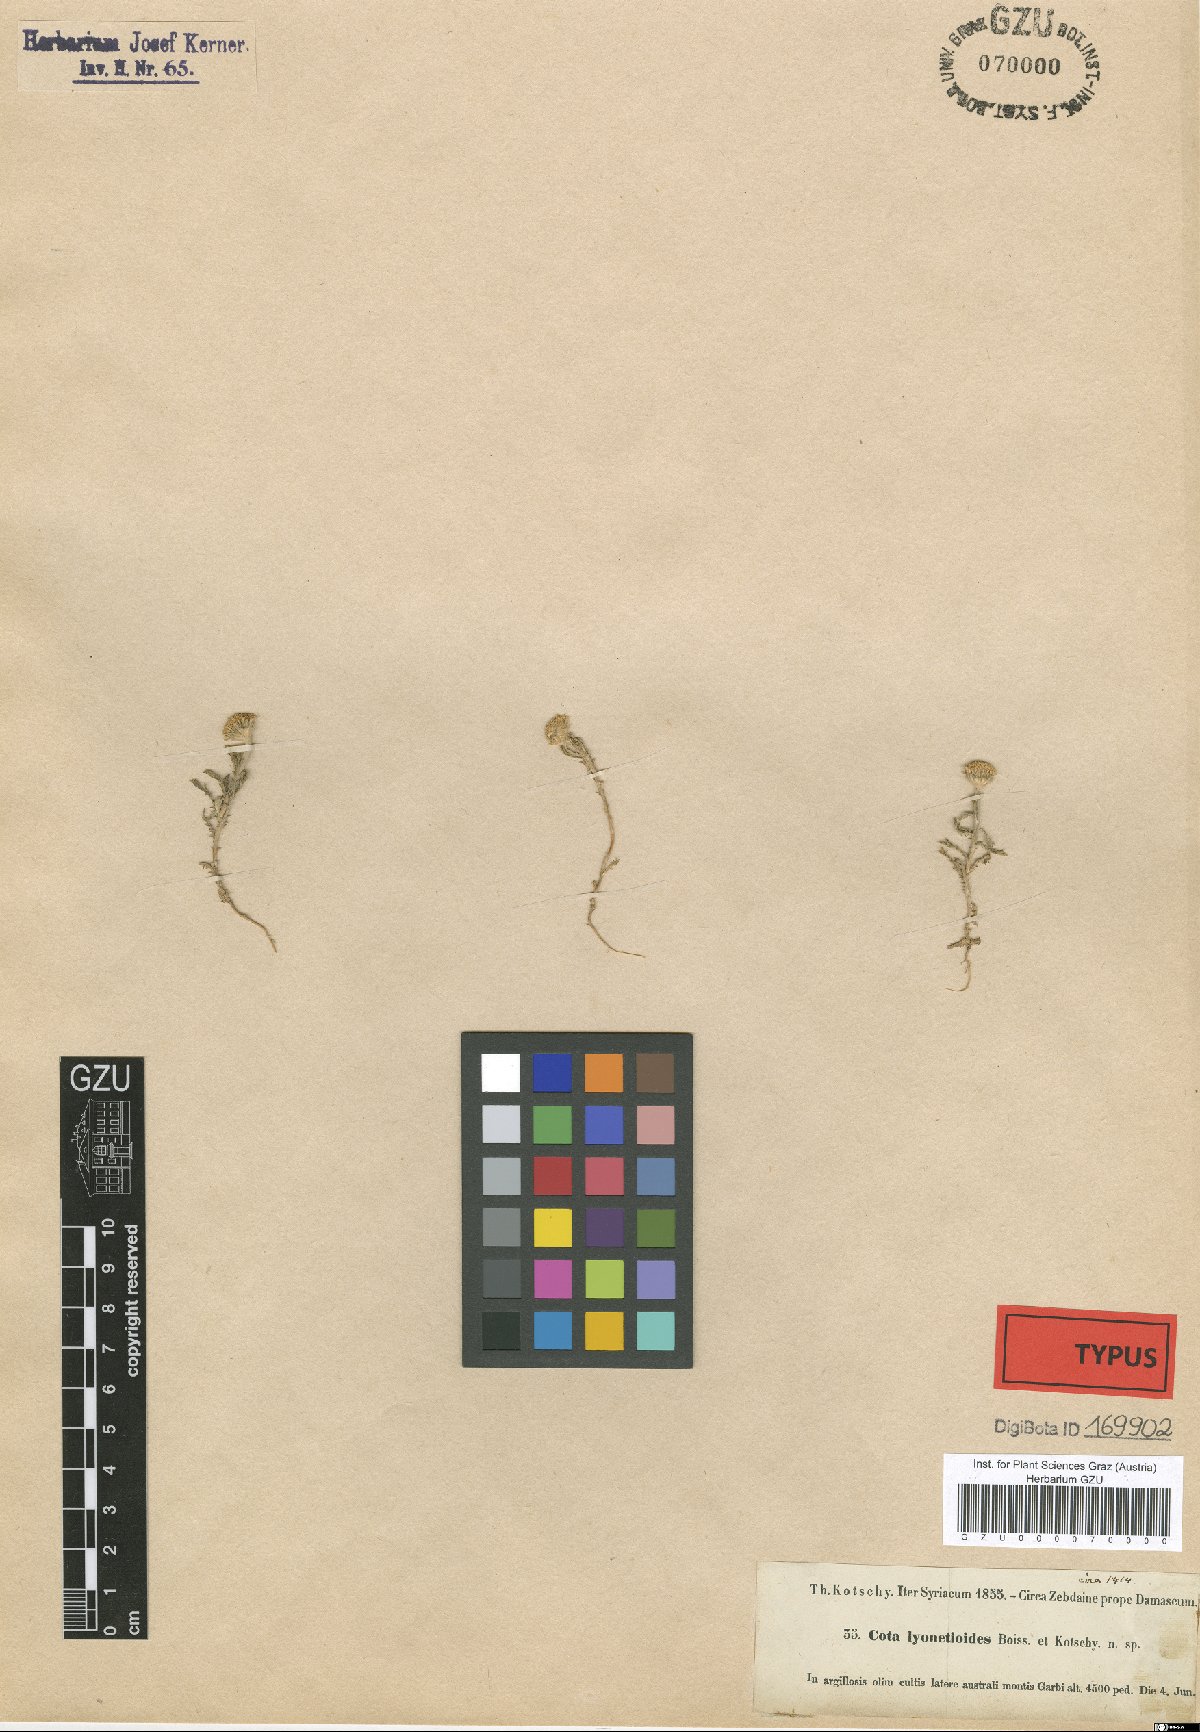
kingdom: Plantae
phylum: Tracheophyta
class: Magnoliopsida
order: Asterales
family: Asteraceae
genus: Cota
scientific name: Cota lyonnetioides
